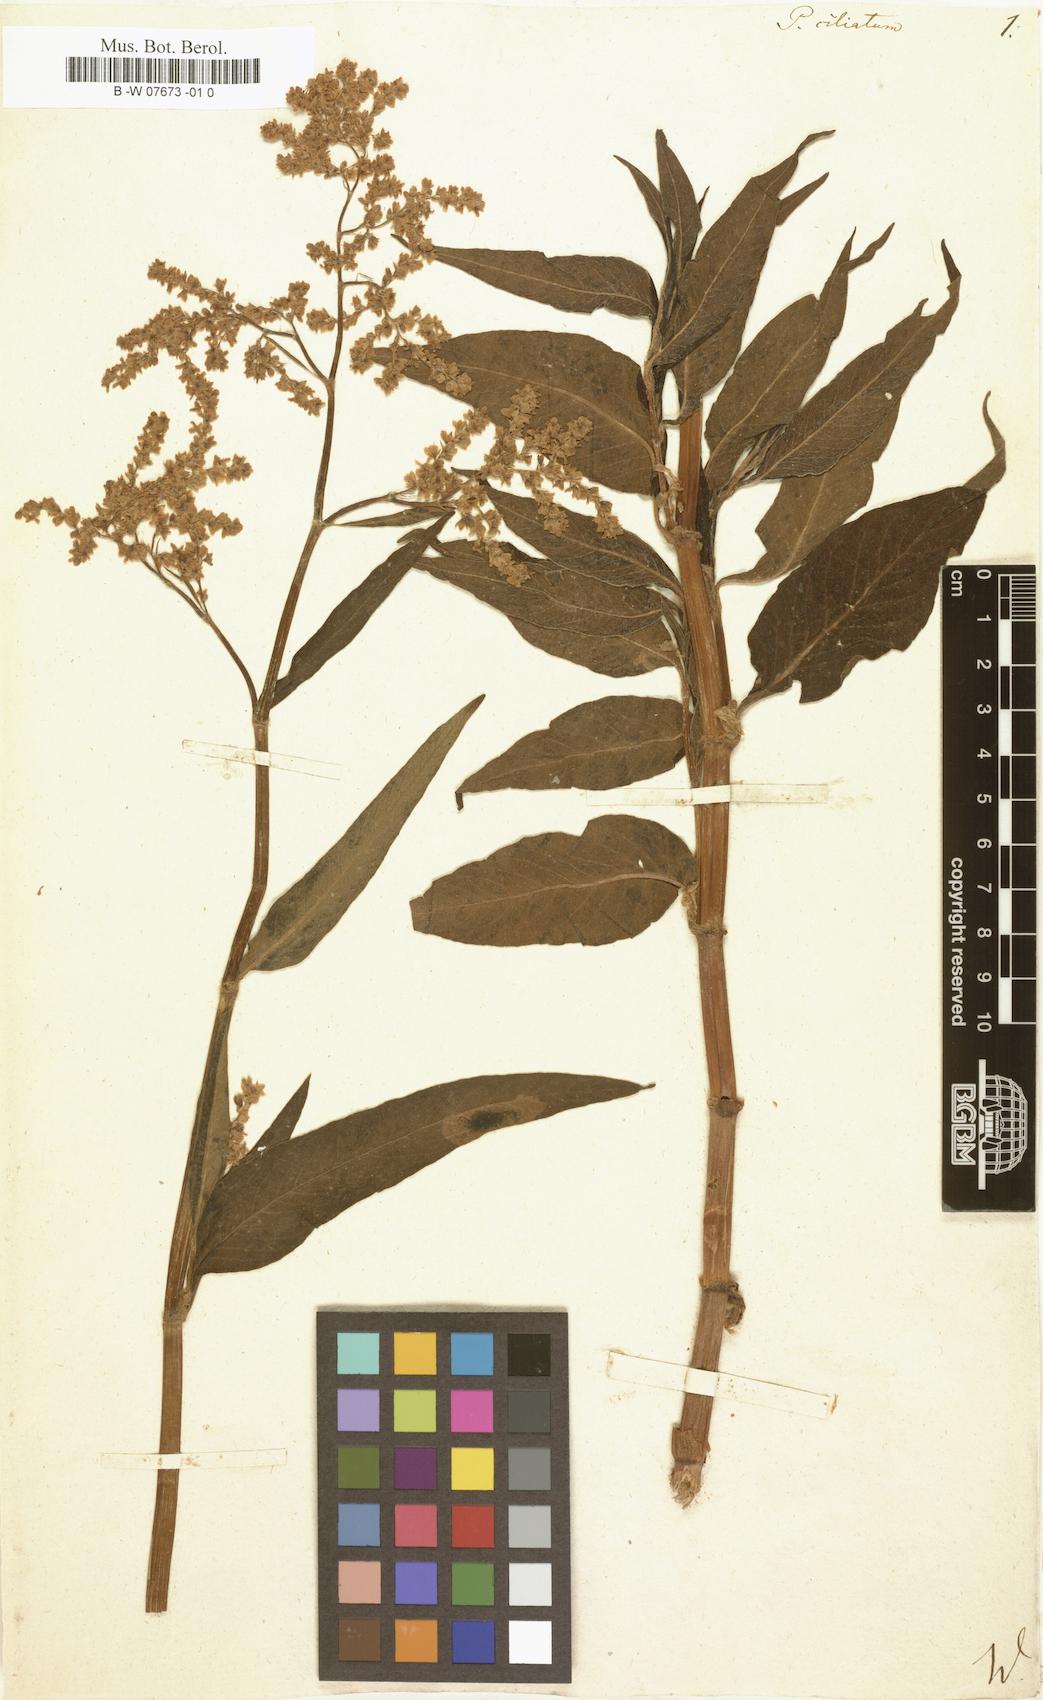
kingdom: Plantae
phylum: Tracheophyta
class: Magnoliopsida
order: Caryophyllales
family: Polygonaceae
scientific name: Polygonaceae
